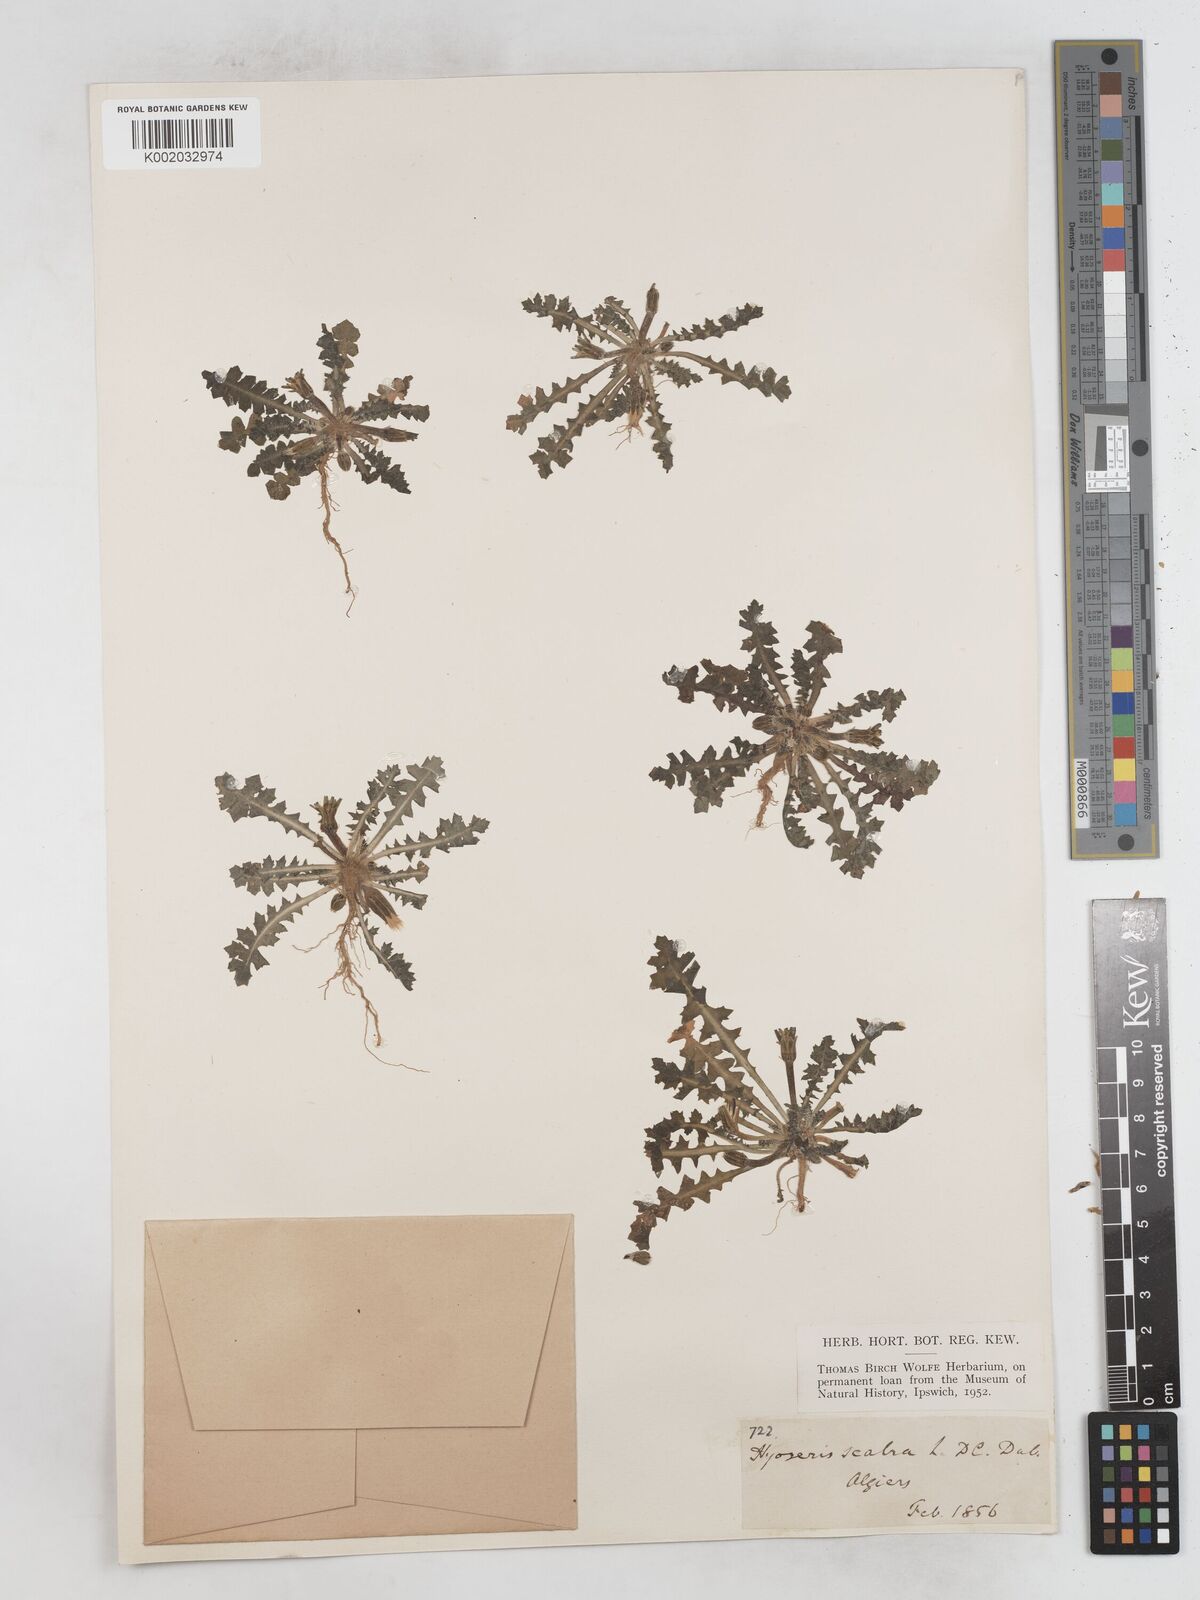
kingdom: Plantae
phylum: Tracheophyta
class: Magnoliopsida
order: Asterales
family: Asteraceae
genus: Hyoseris
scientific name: Hyoseris scabra
